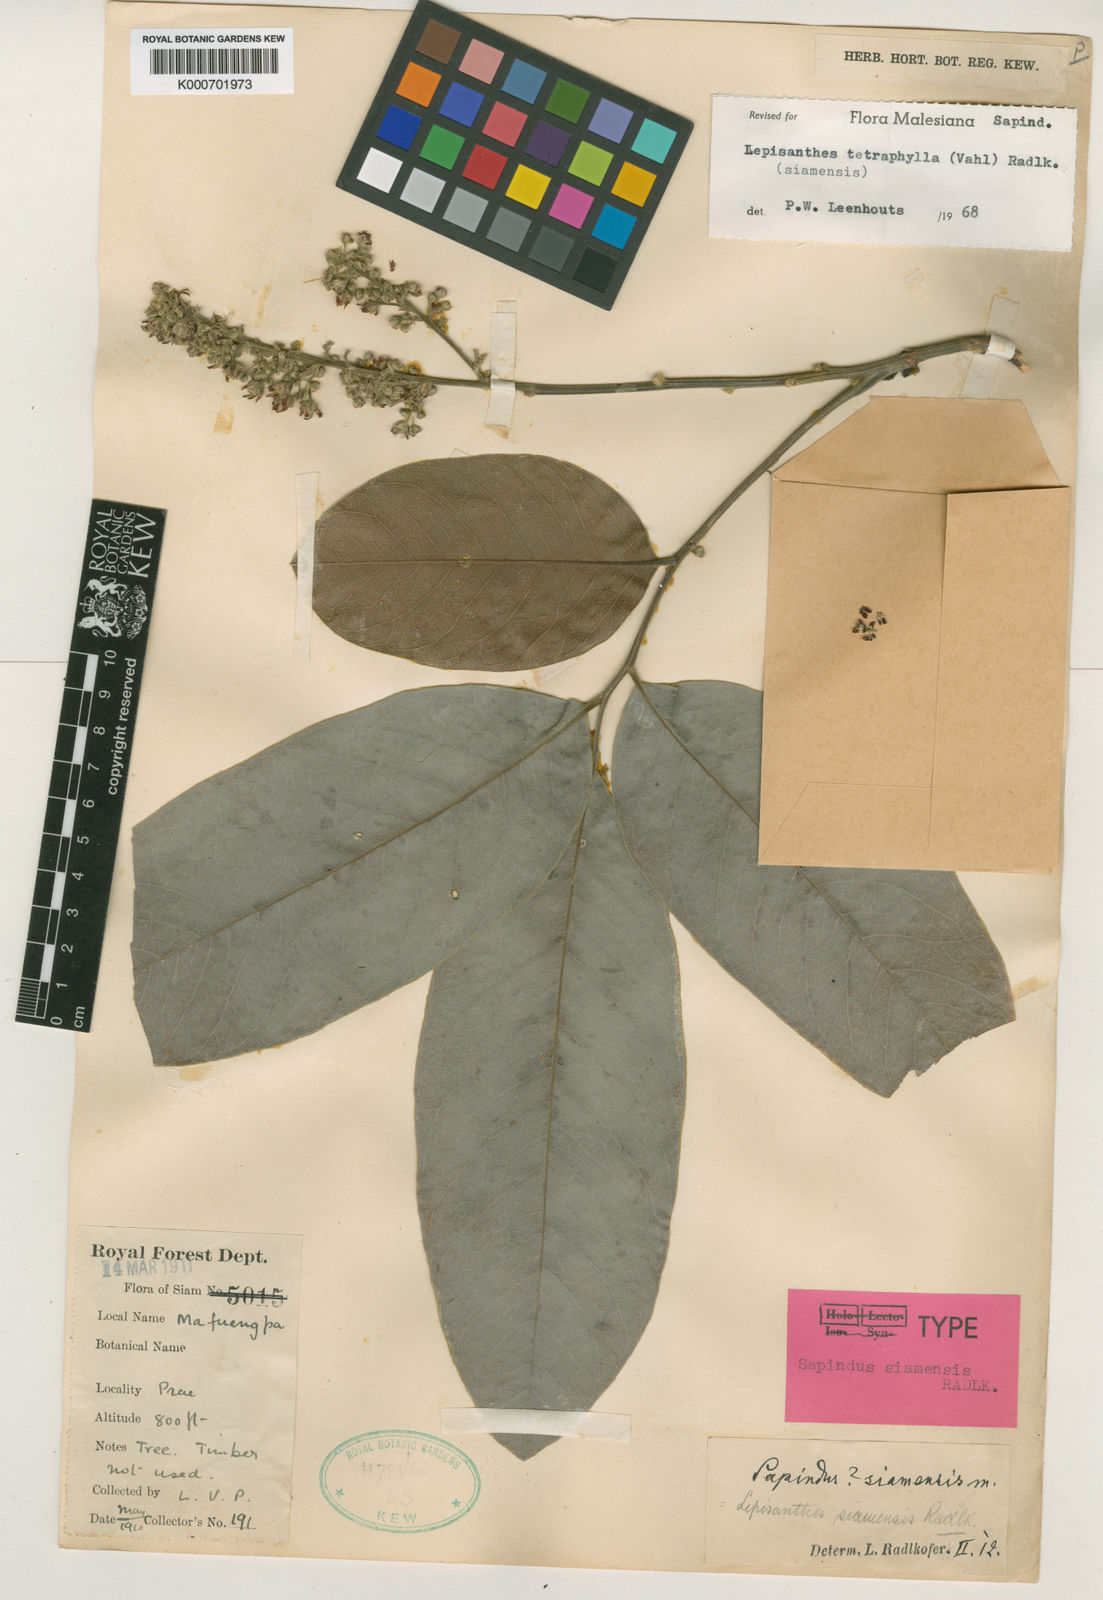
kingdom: Plantae
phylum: Tracheophyta
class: Magnoliopsida
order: Sapindales
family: Sapindaceae
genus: Lepisanthes
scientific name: Lepisanthes tetraphylla
